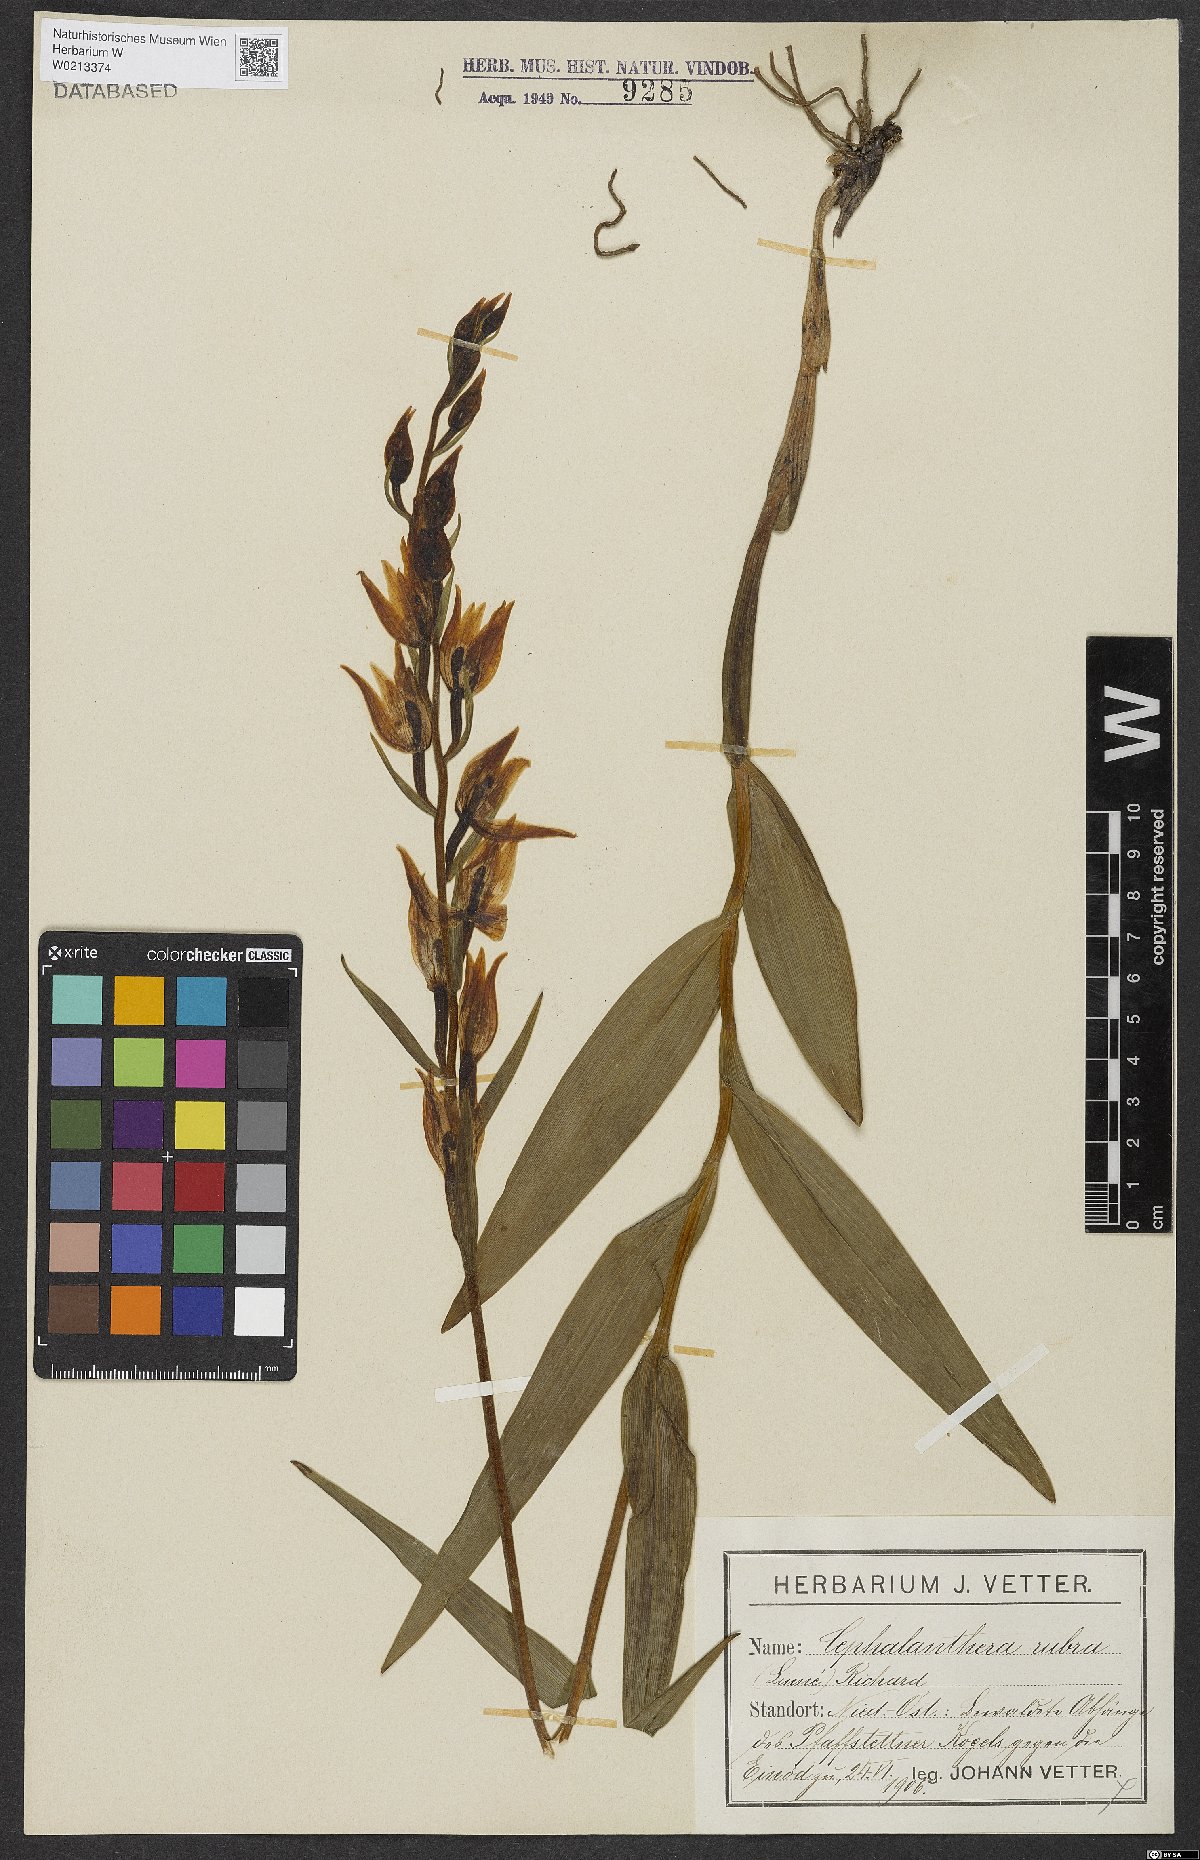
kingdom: Plantae
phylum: Tracheophyta
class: Liliopsida
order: Asparagales
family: Orchidaceae
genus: Cephalanthera
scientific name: Cephalanthera rubra
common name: Red helleborine
